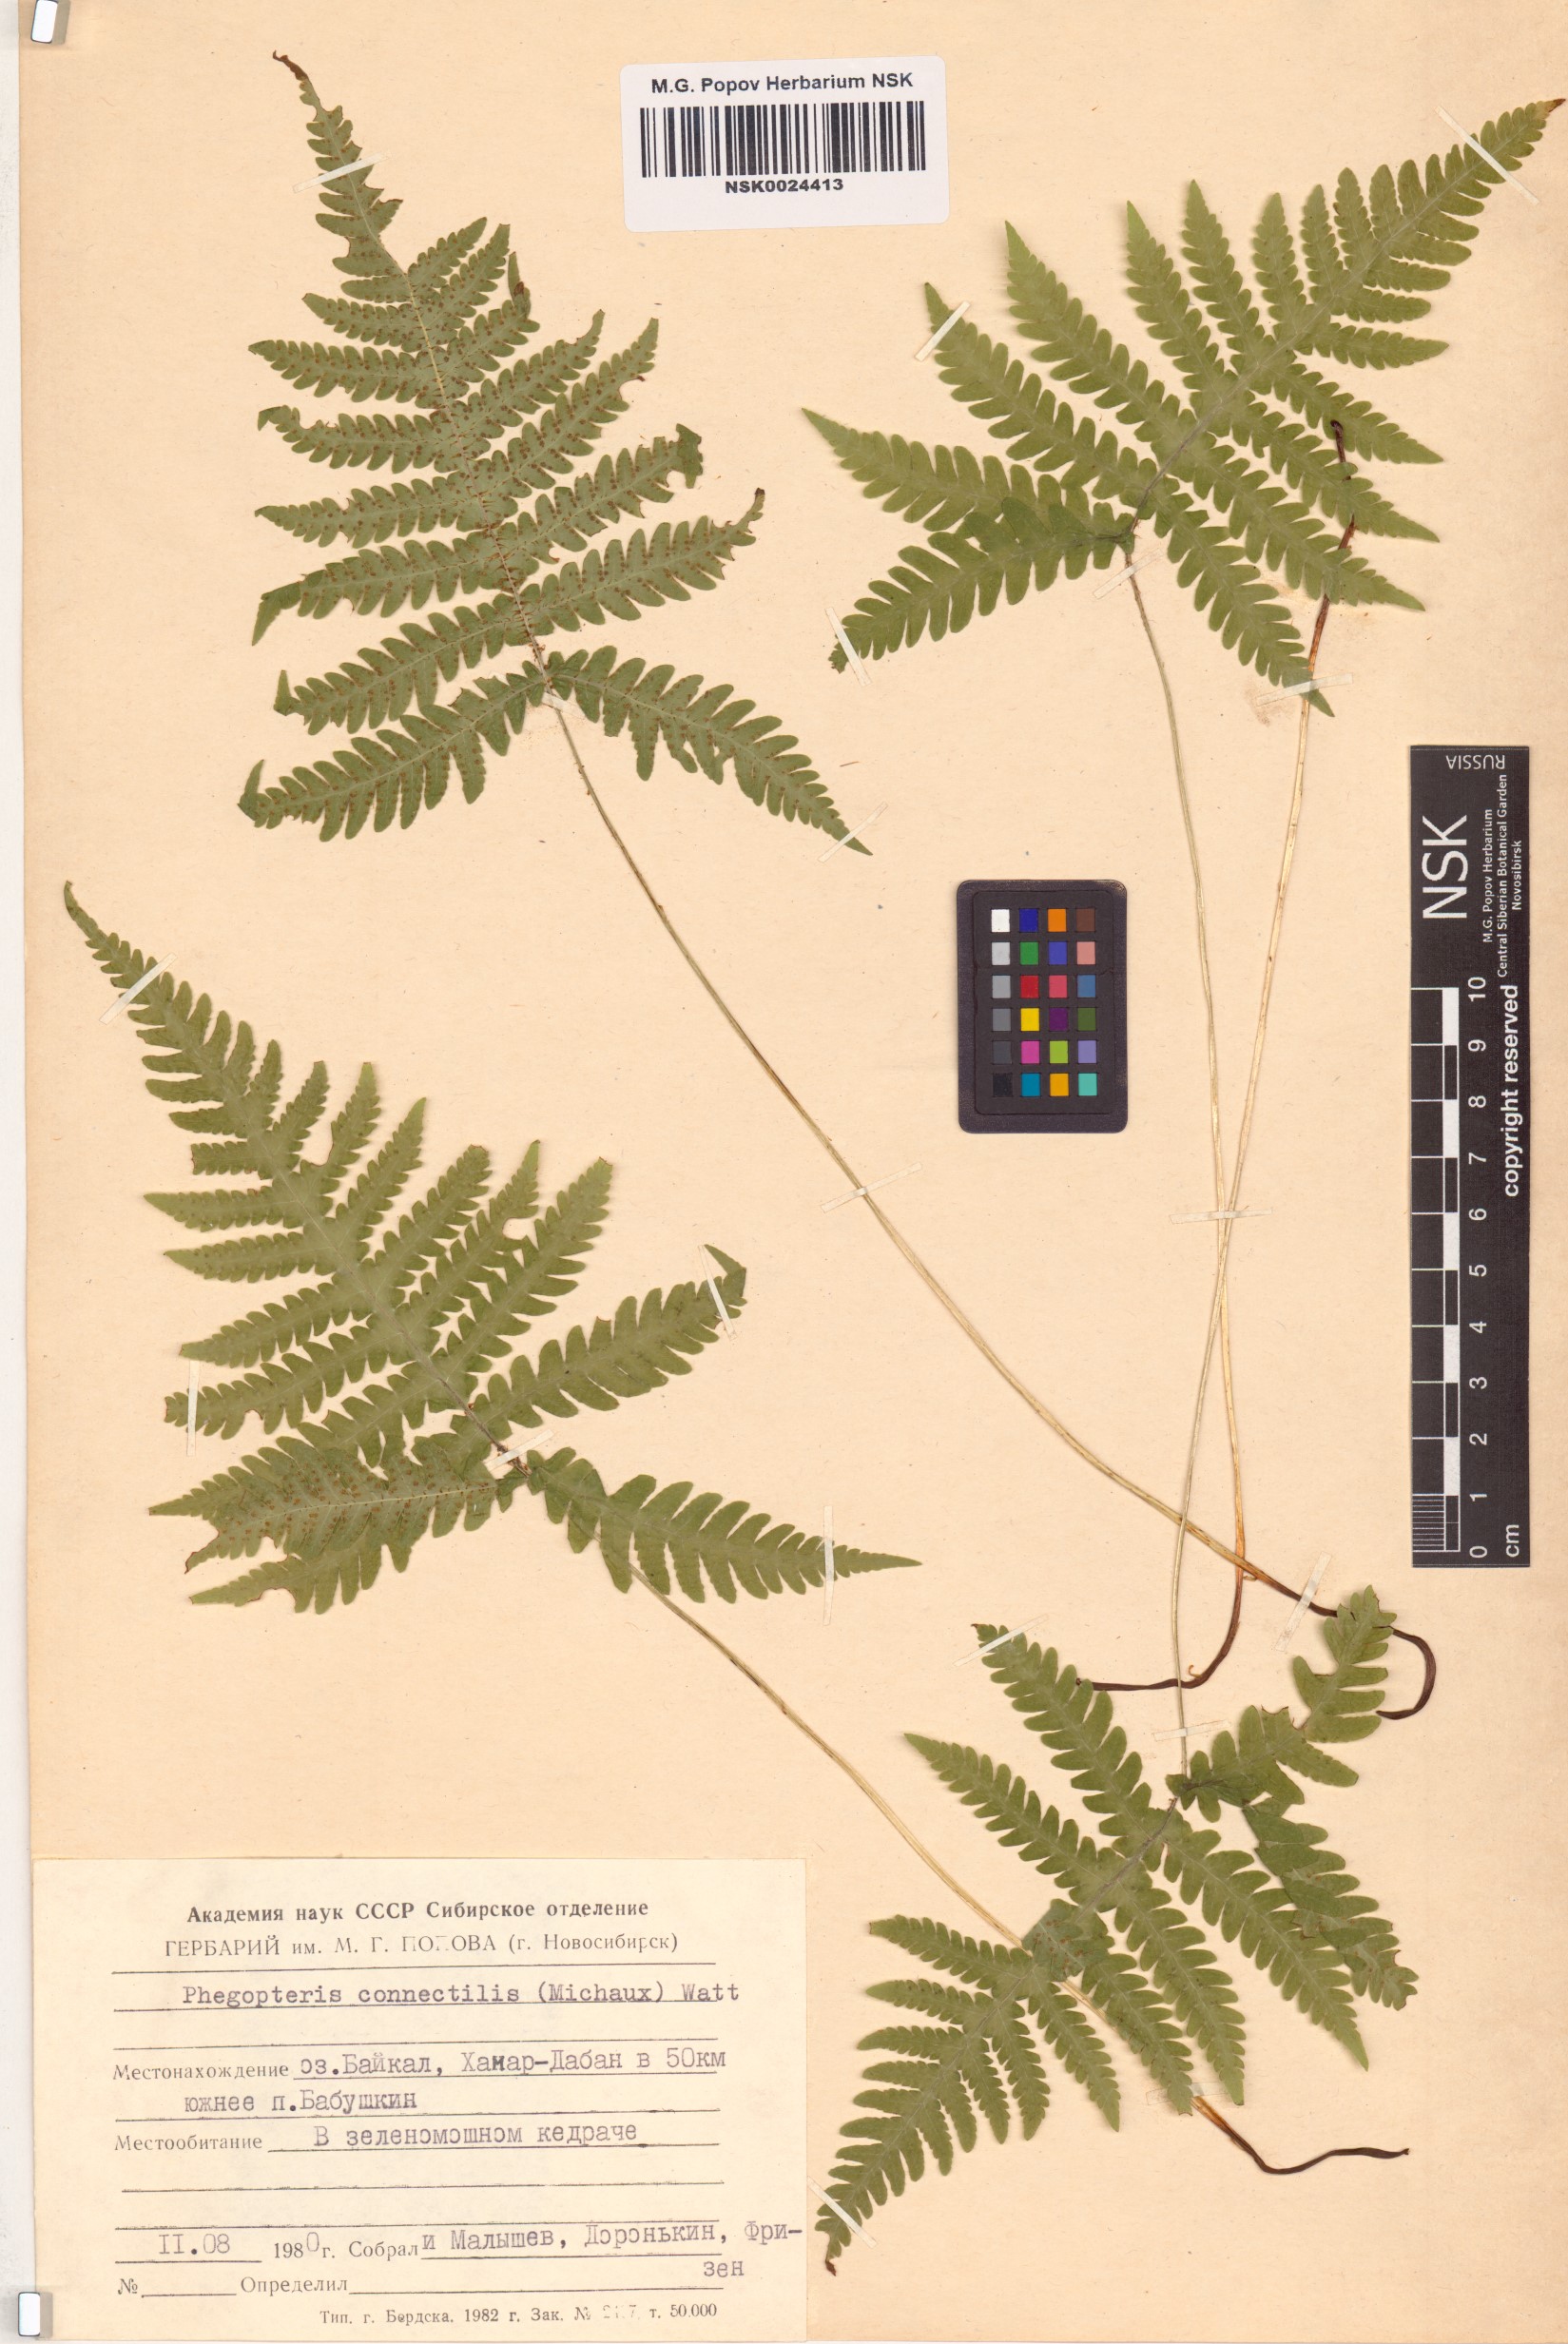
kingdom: Plantae
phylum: Tracheophyta
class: Polypodiopsida
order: Polypodiales
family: Thelypteridaceae
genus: Phegopteris
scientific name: Phegopteris connectilis
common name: Beech fern
